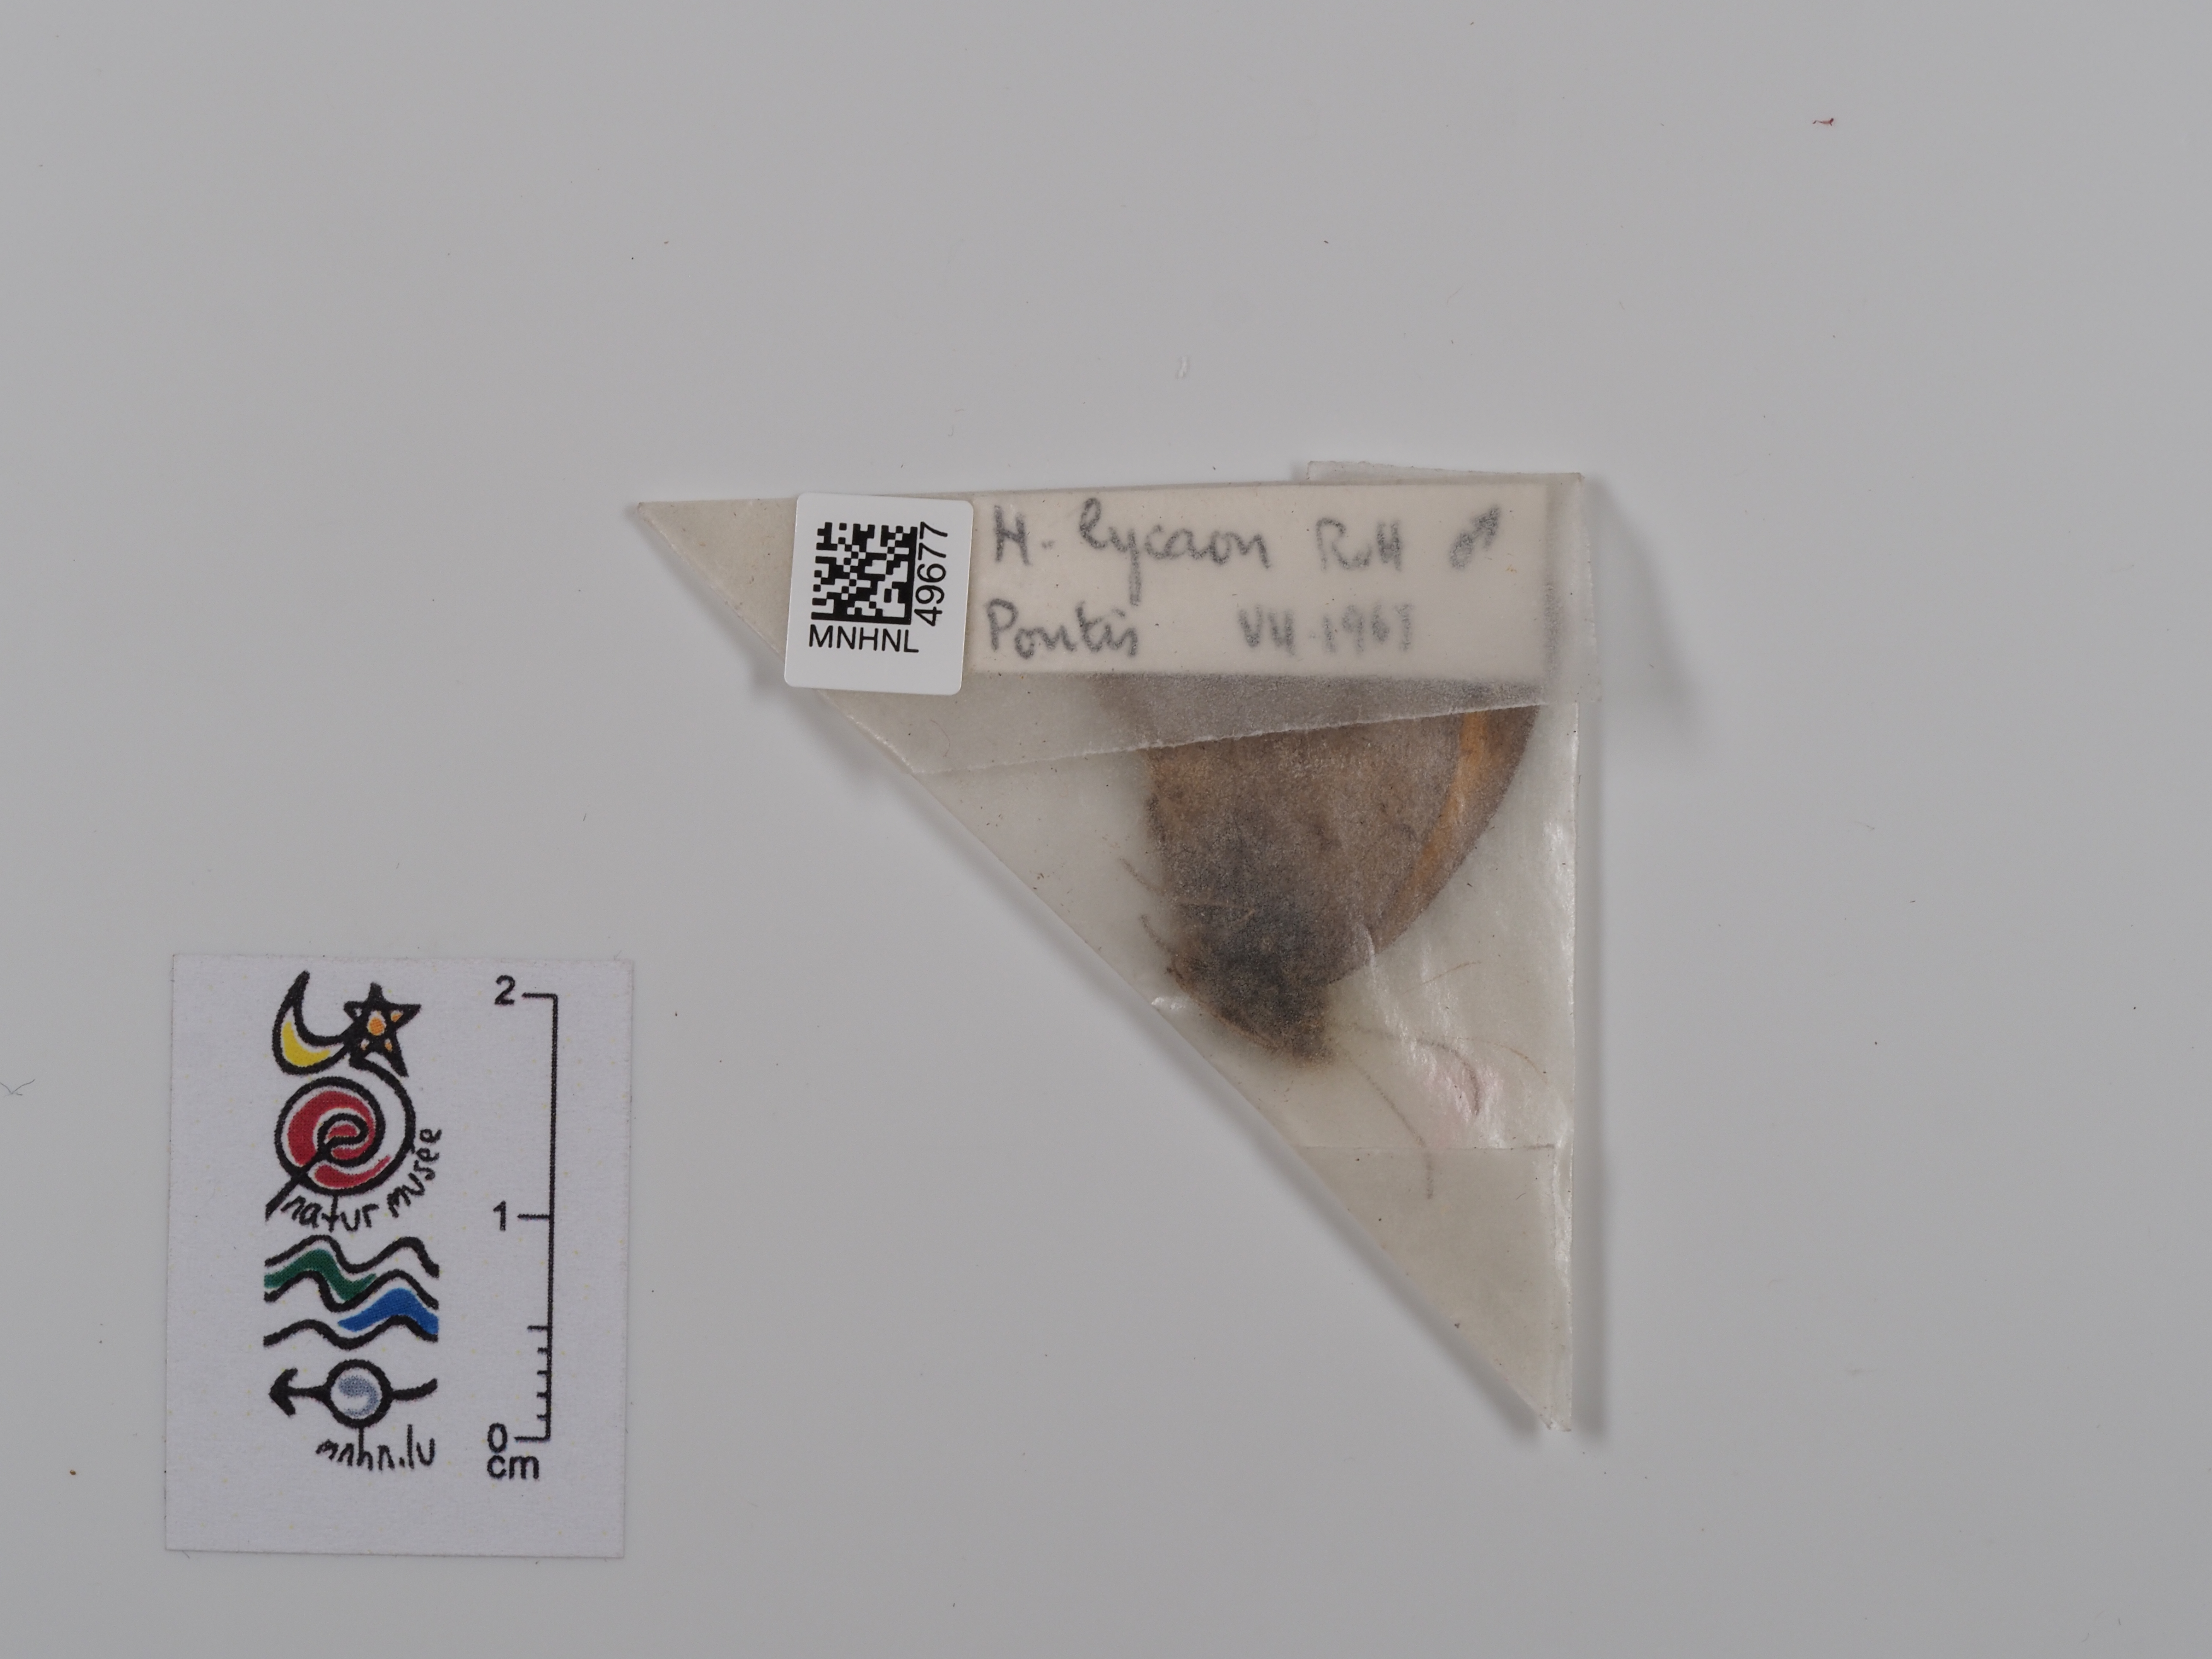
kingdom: Animalia
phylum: Arthropoda
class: Insecta
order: Lepidoptera
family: Nymphalidae
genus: Hyponephele
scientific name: Hyponephele lycaon
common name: Dusky meadow brown
